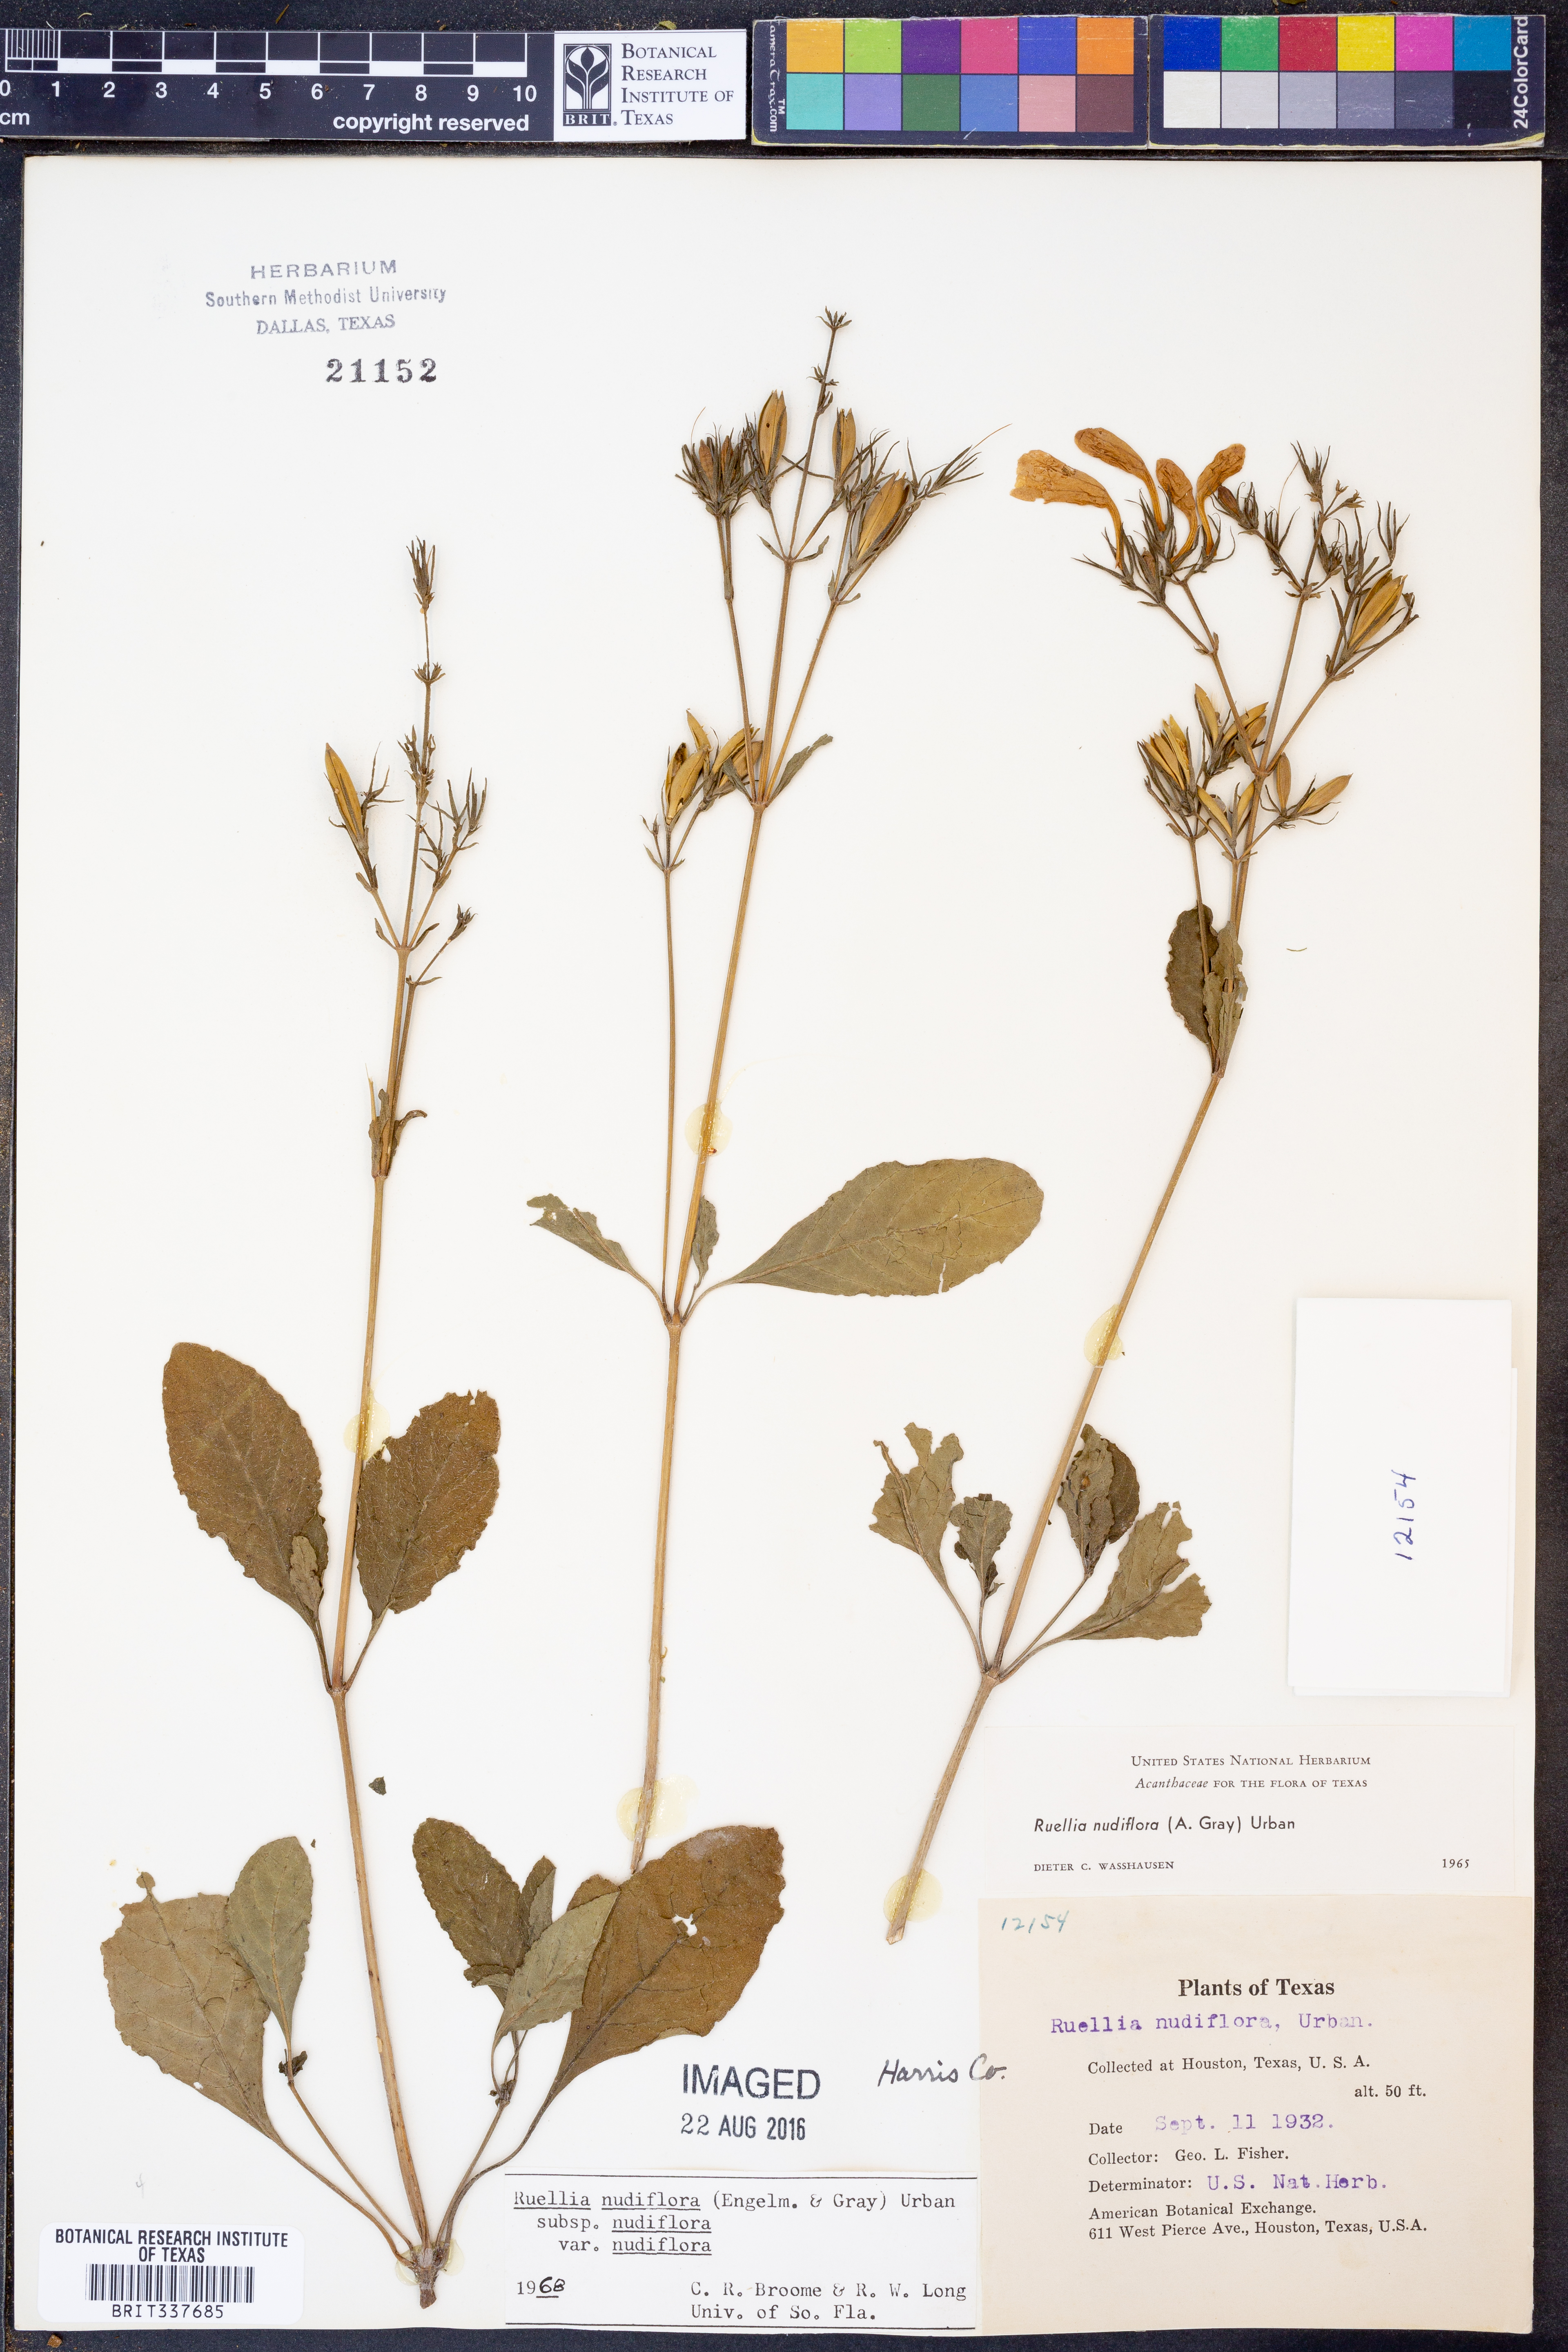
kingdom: Plantae
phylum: Tracheophyta
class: Magnoliopsida
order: Lamiales
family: Acanthaceae
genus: Ruellia
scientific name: Ruellia ciliatiflora
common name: Hairyflower wild petunia
